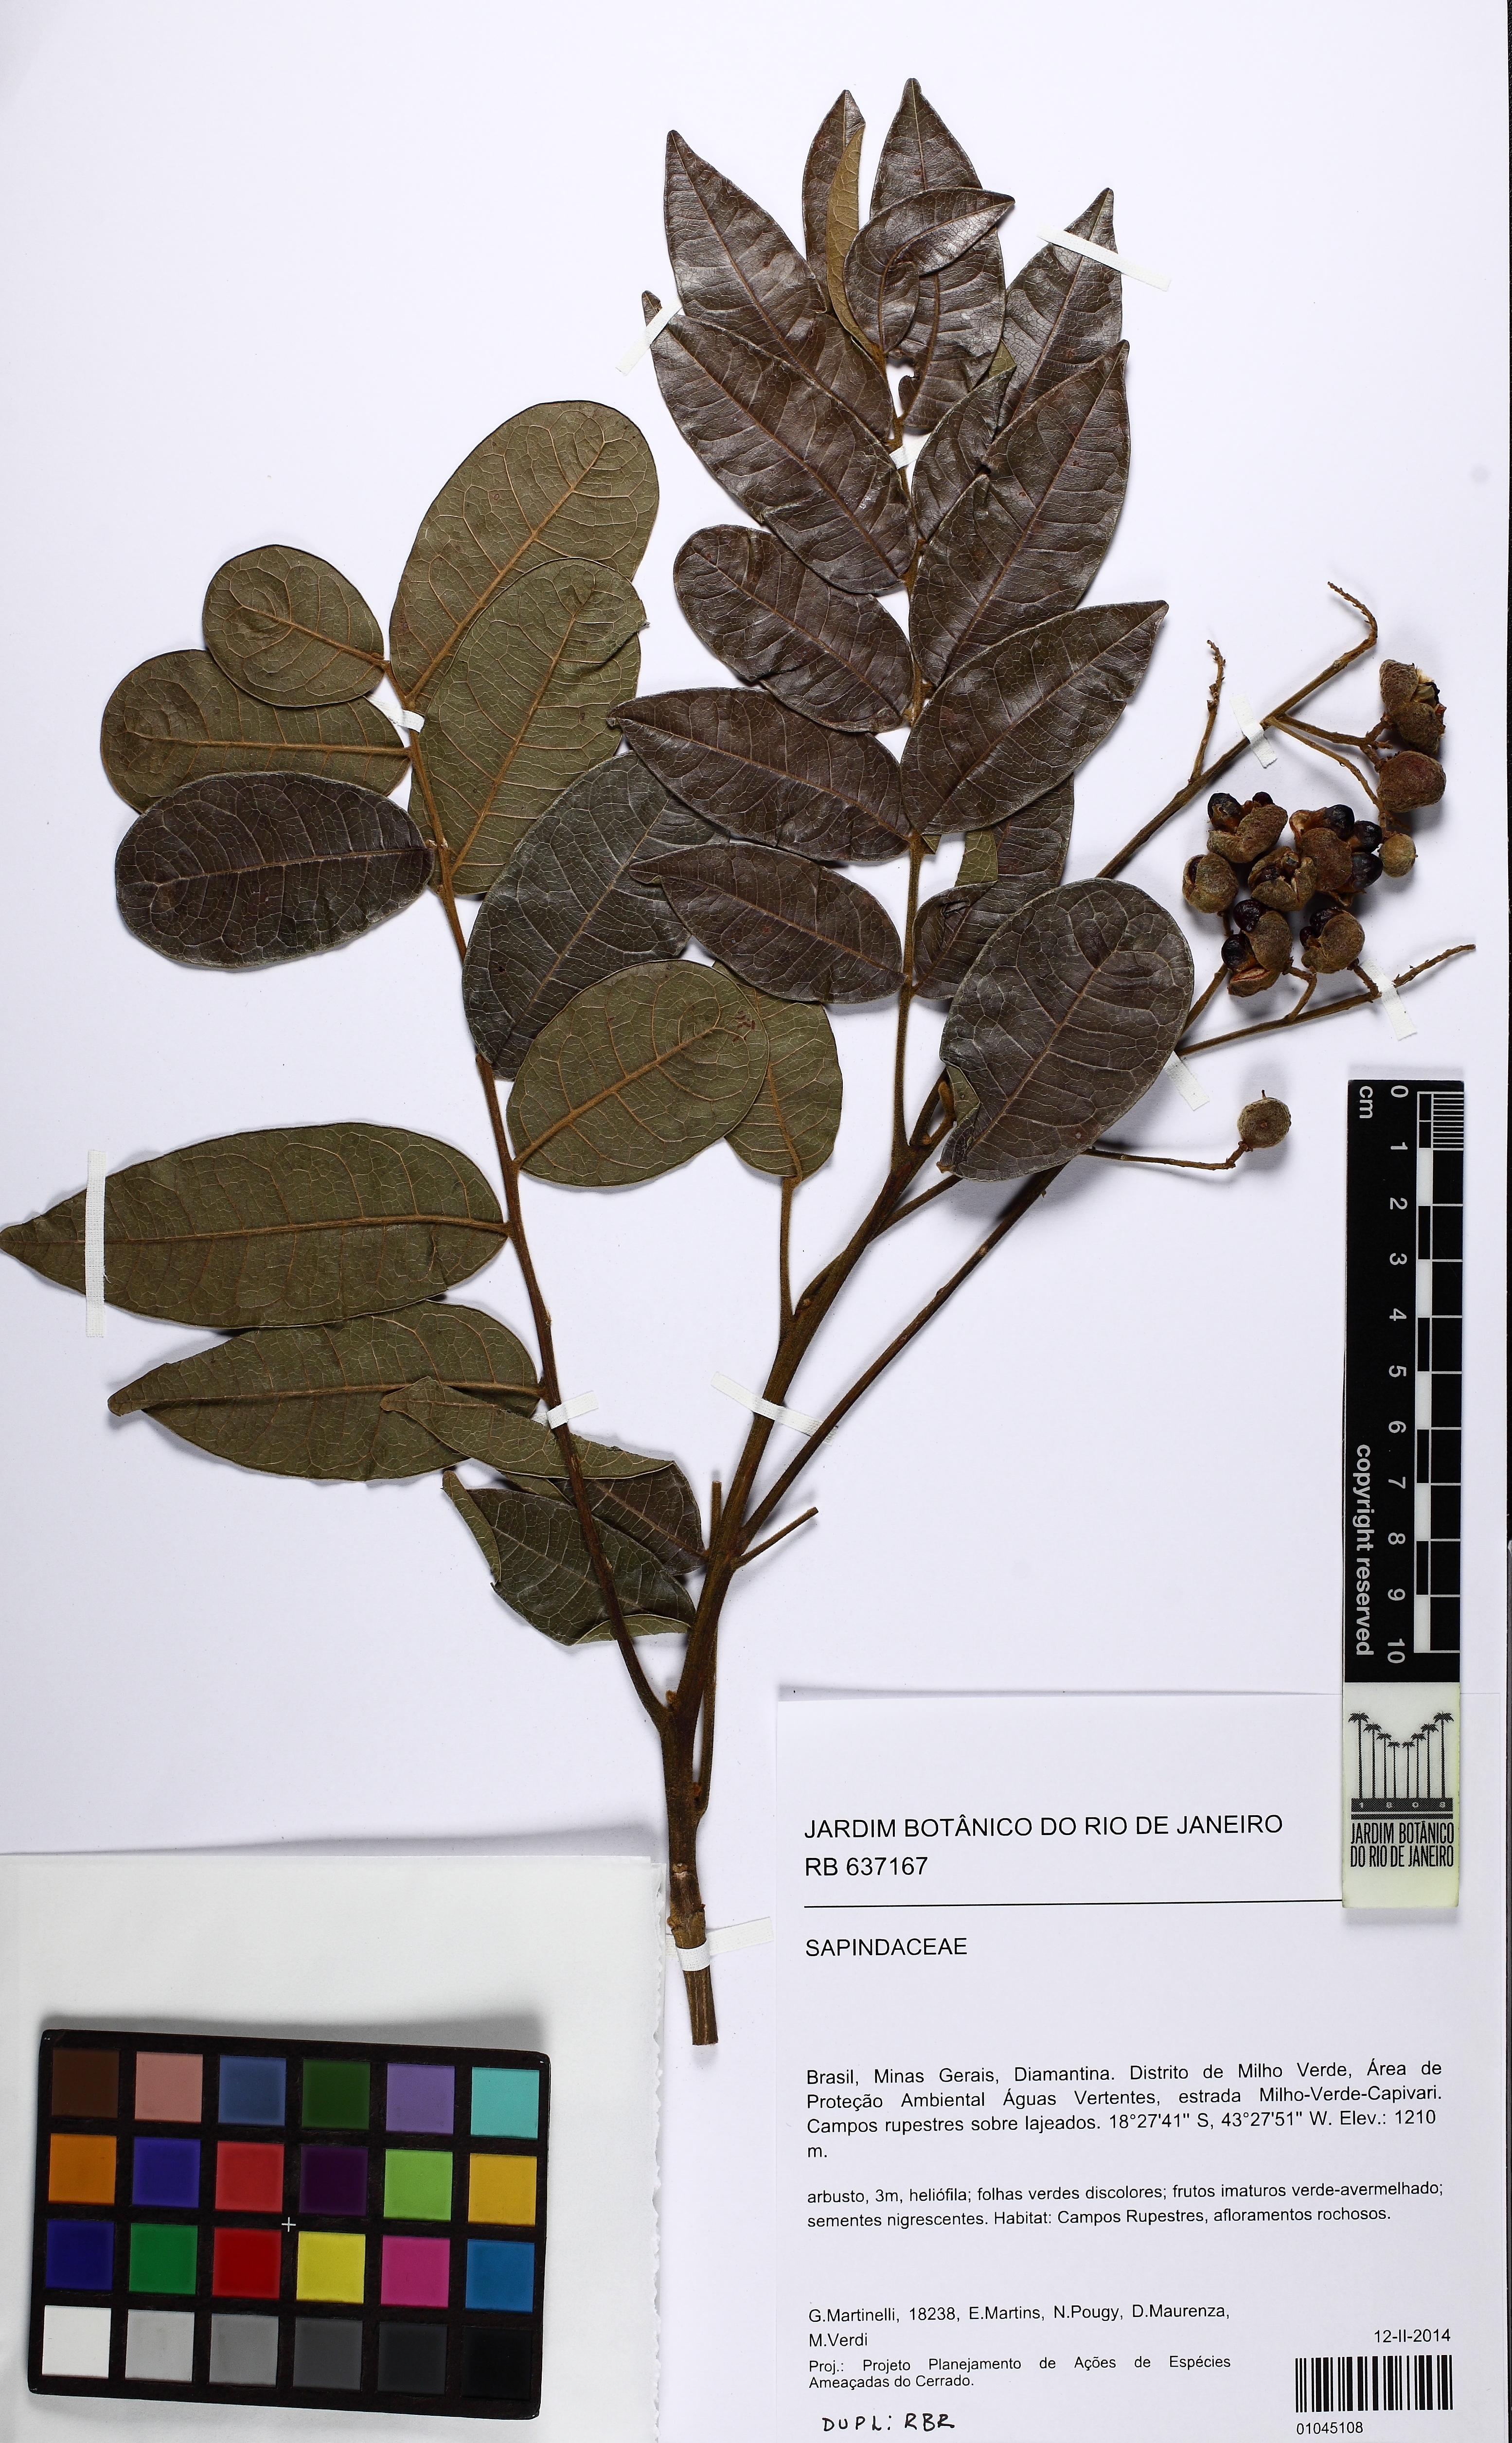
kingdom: Plantae
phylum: Tracheophyta
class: Magnoliopsida
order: Sapindales
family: Sapindaceae
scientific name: Sapindaceae
